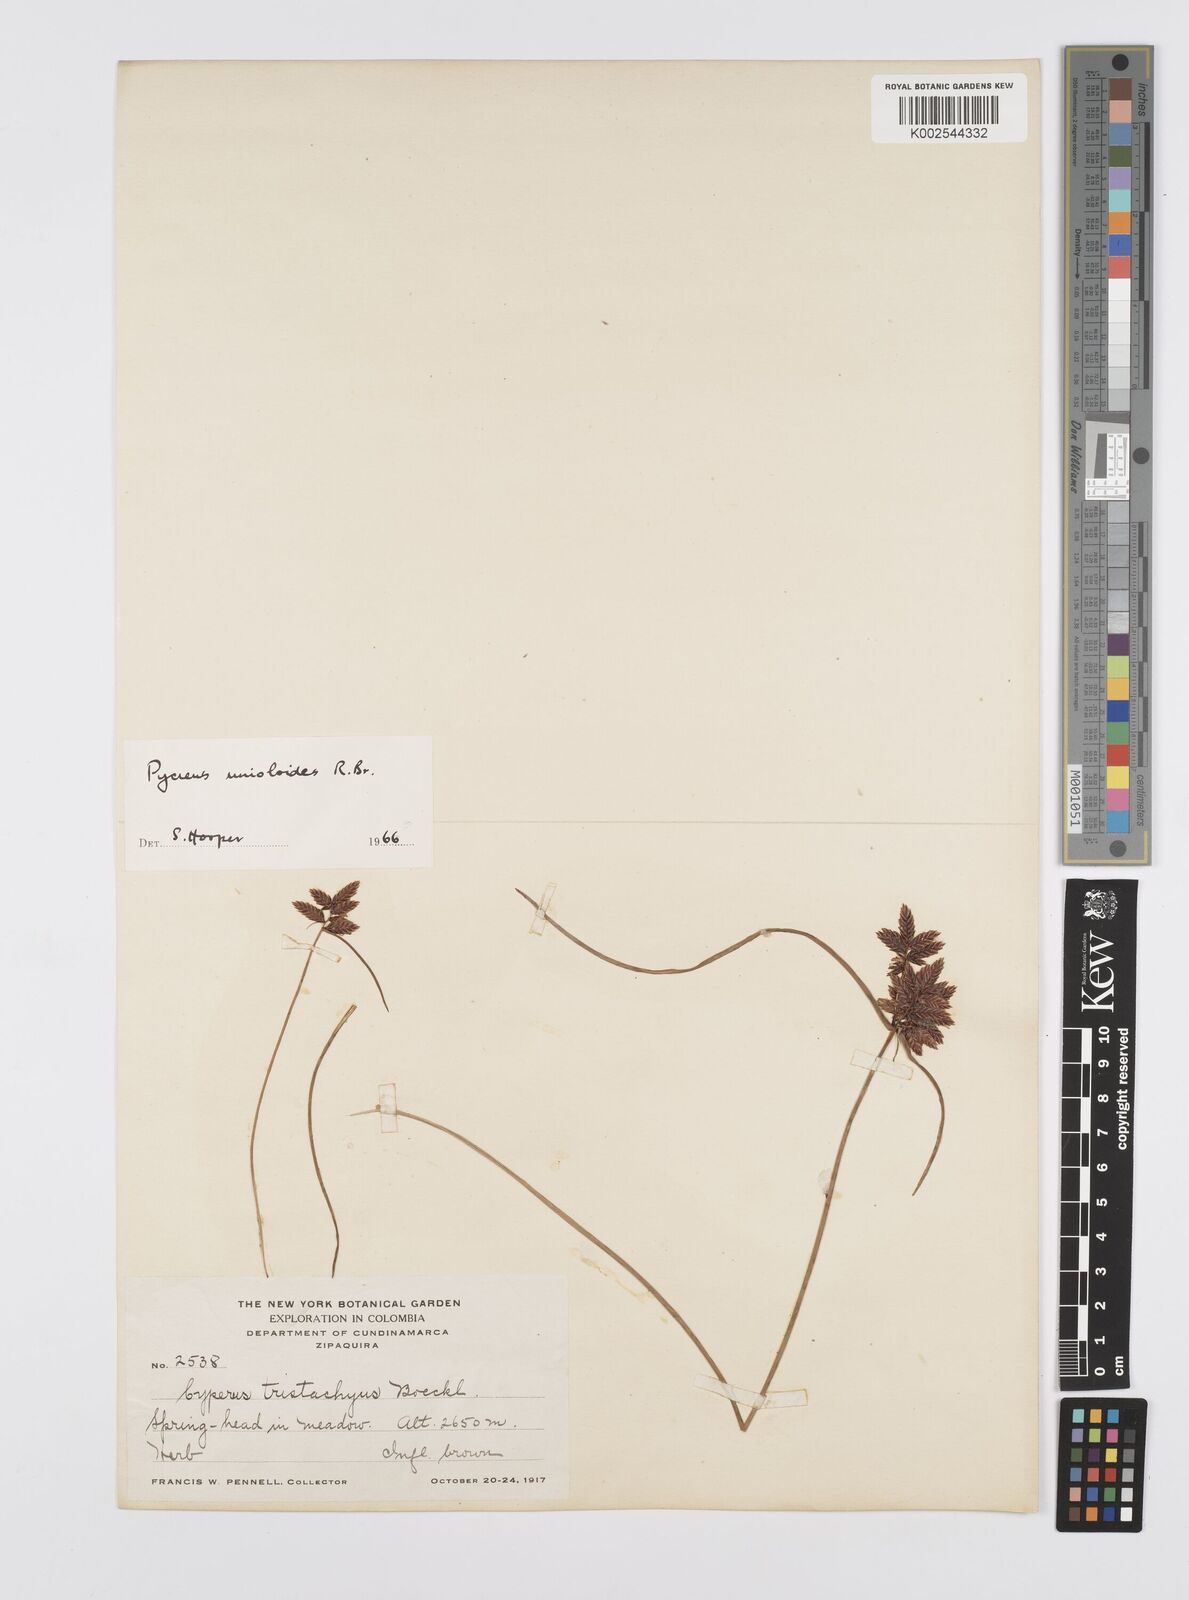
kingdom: Plantae
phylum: Tracheophyta
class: Liliopsida
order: Poales
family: Cyperaceae
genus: Cyperus
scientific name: Cyperus unioloides
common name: Uniola flatsedge
